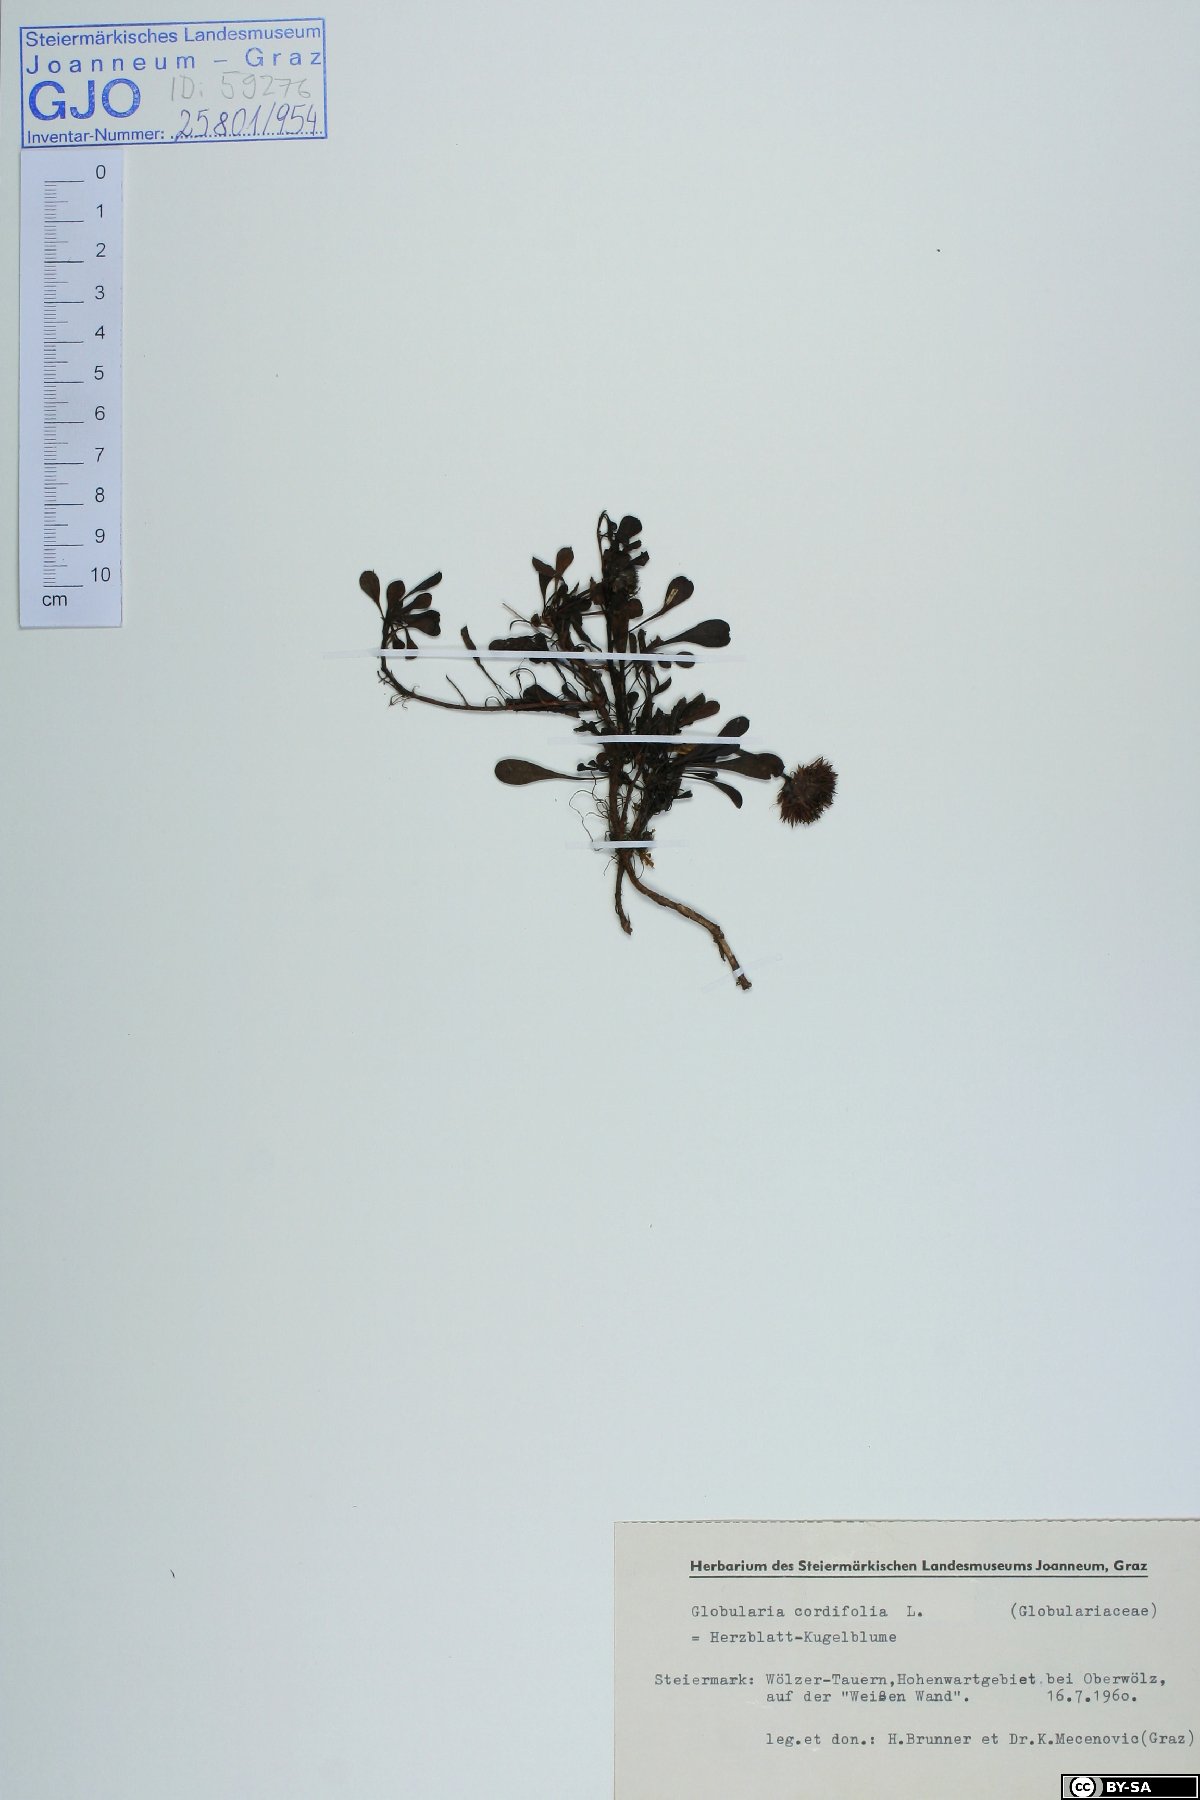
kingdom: Plantae
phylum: Tracheophyta
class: Magnoliopsida
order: Lamiales
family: Plantaginaceae
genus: Globularia
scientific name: Globularia cordifolia
